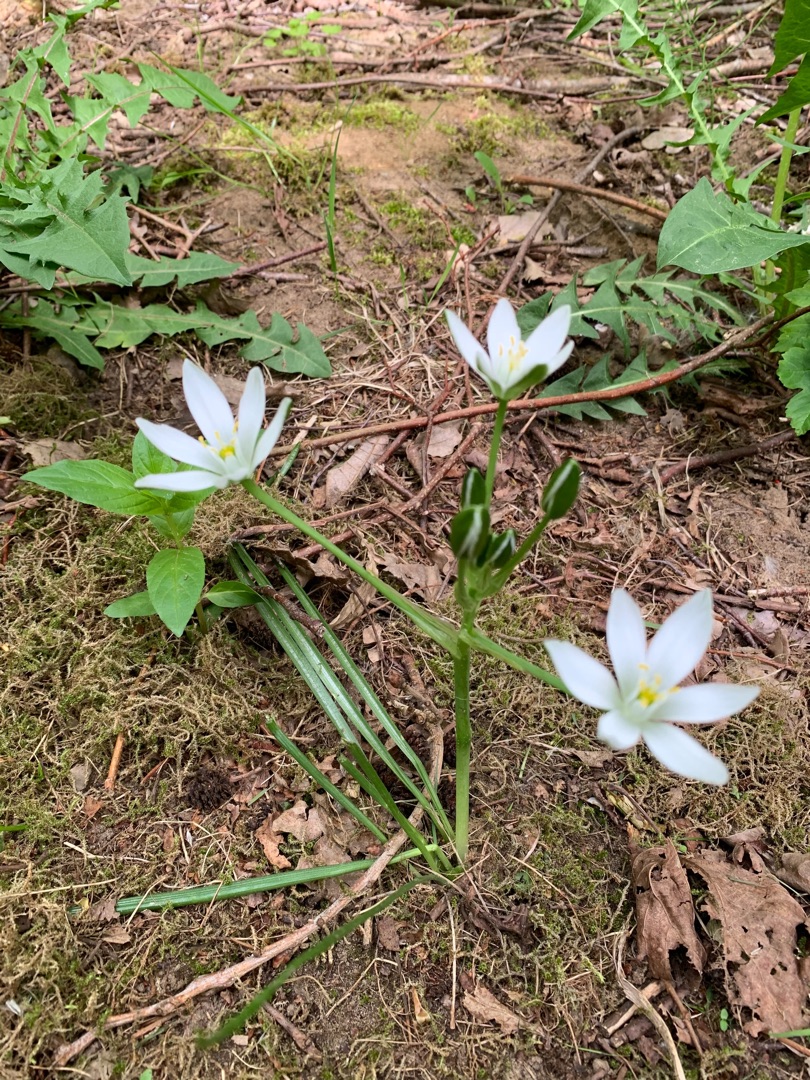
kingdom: Plantae
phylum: Tracheophyta
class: Liliopsida
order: Asparagales
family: Asparagaceae
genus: Ornithogalum
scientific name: Ornithogalum divergens
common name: Udspærret fuglemælk
